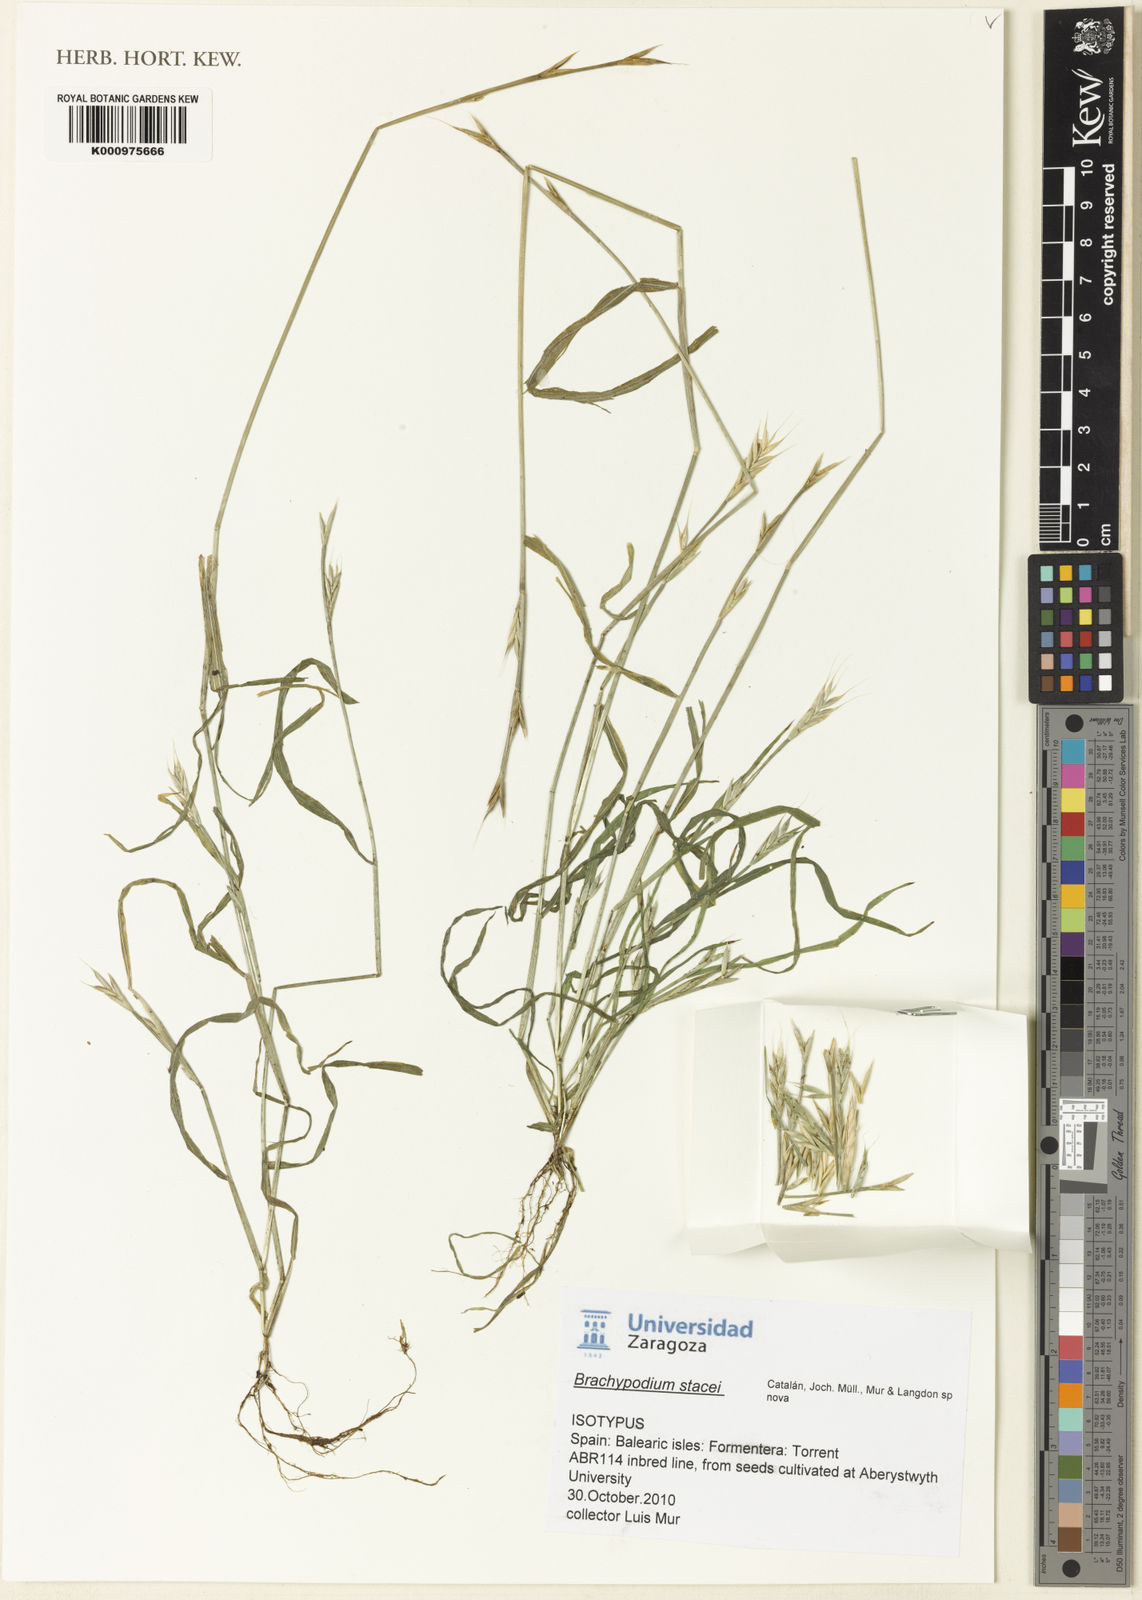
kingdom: Plantae
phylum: Tracheophyta
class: Liliopsida
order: Poales
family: Poaceae
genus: Brachypodium
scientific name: Brachypodium distachyon
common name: Stiff brome
